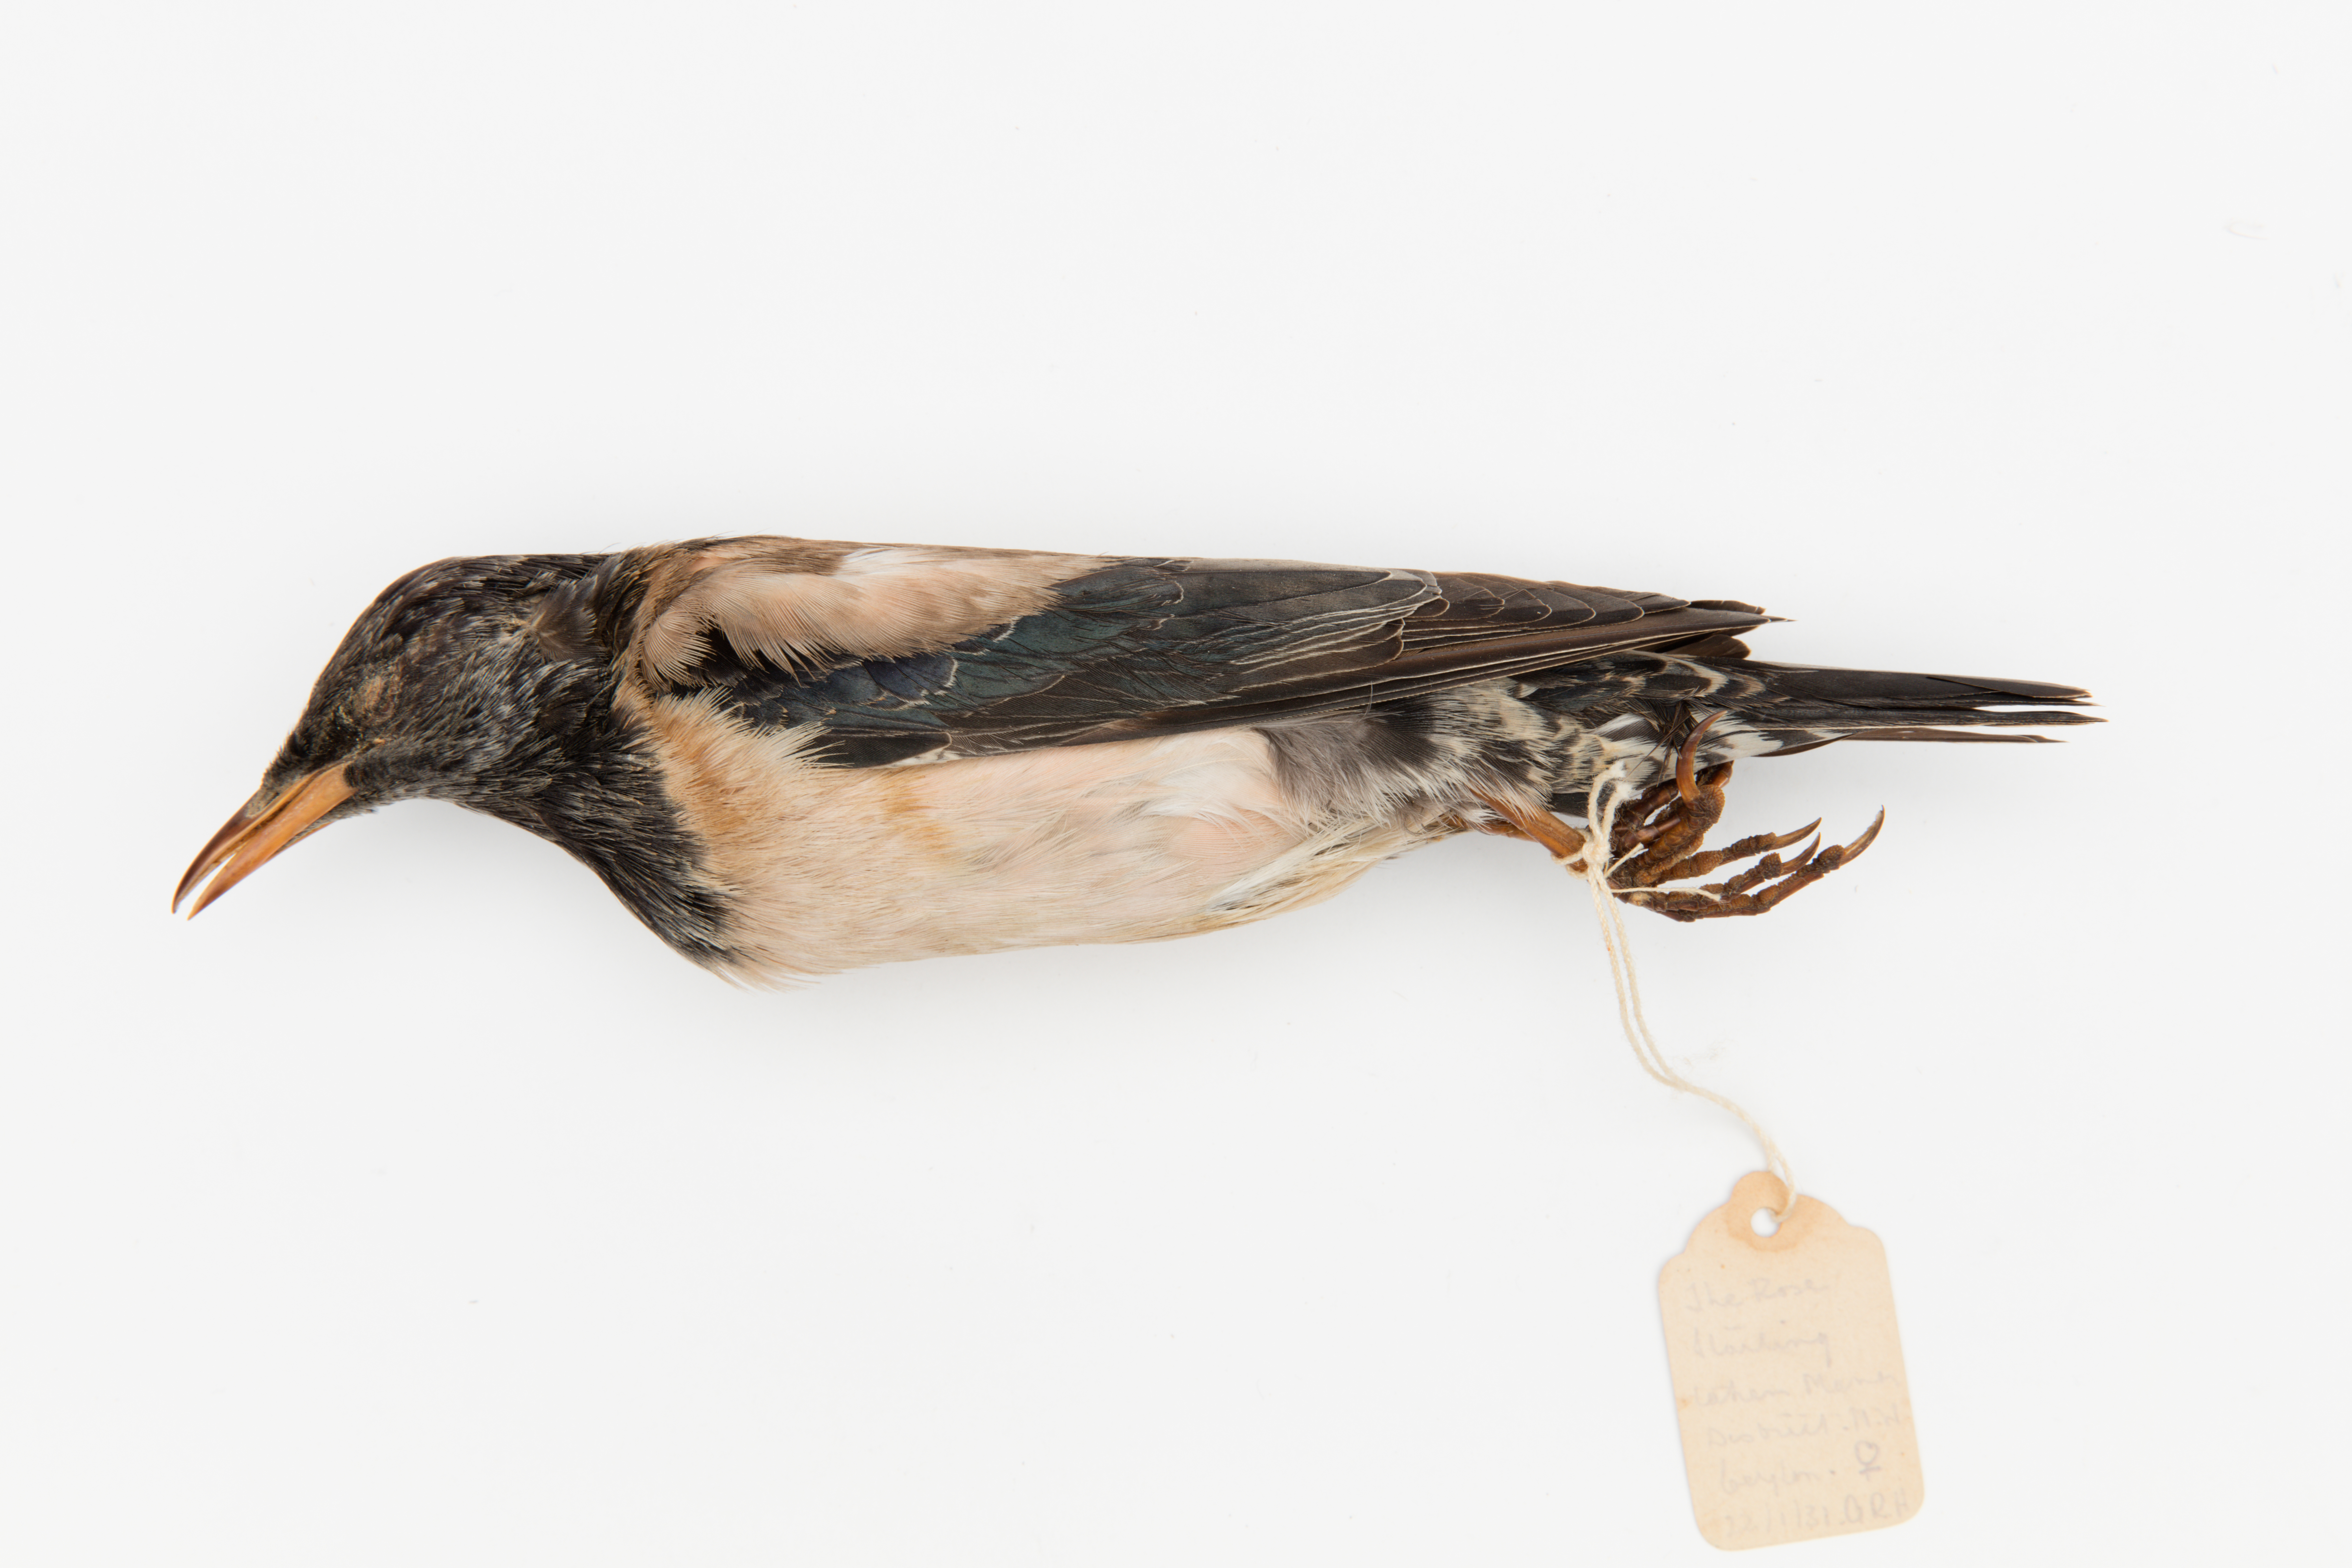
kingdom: Animalia
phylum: Chordata
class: Aves
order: Passeriformes
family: Sturnidae
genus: Pastor
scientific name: Pastor roseus
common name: Rosy starling
